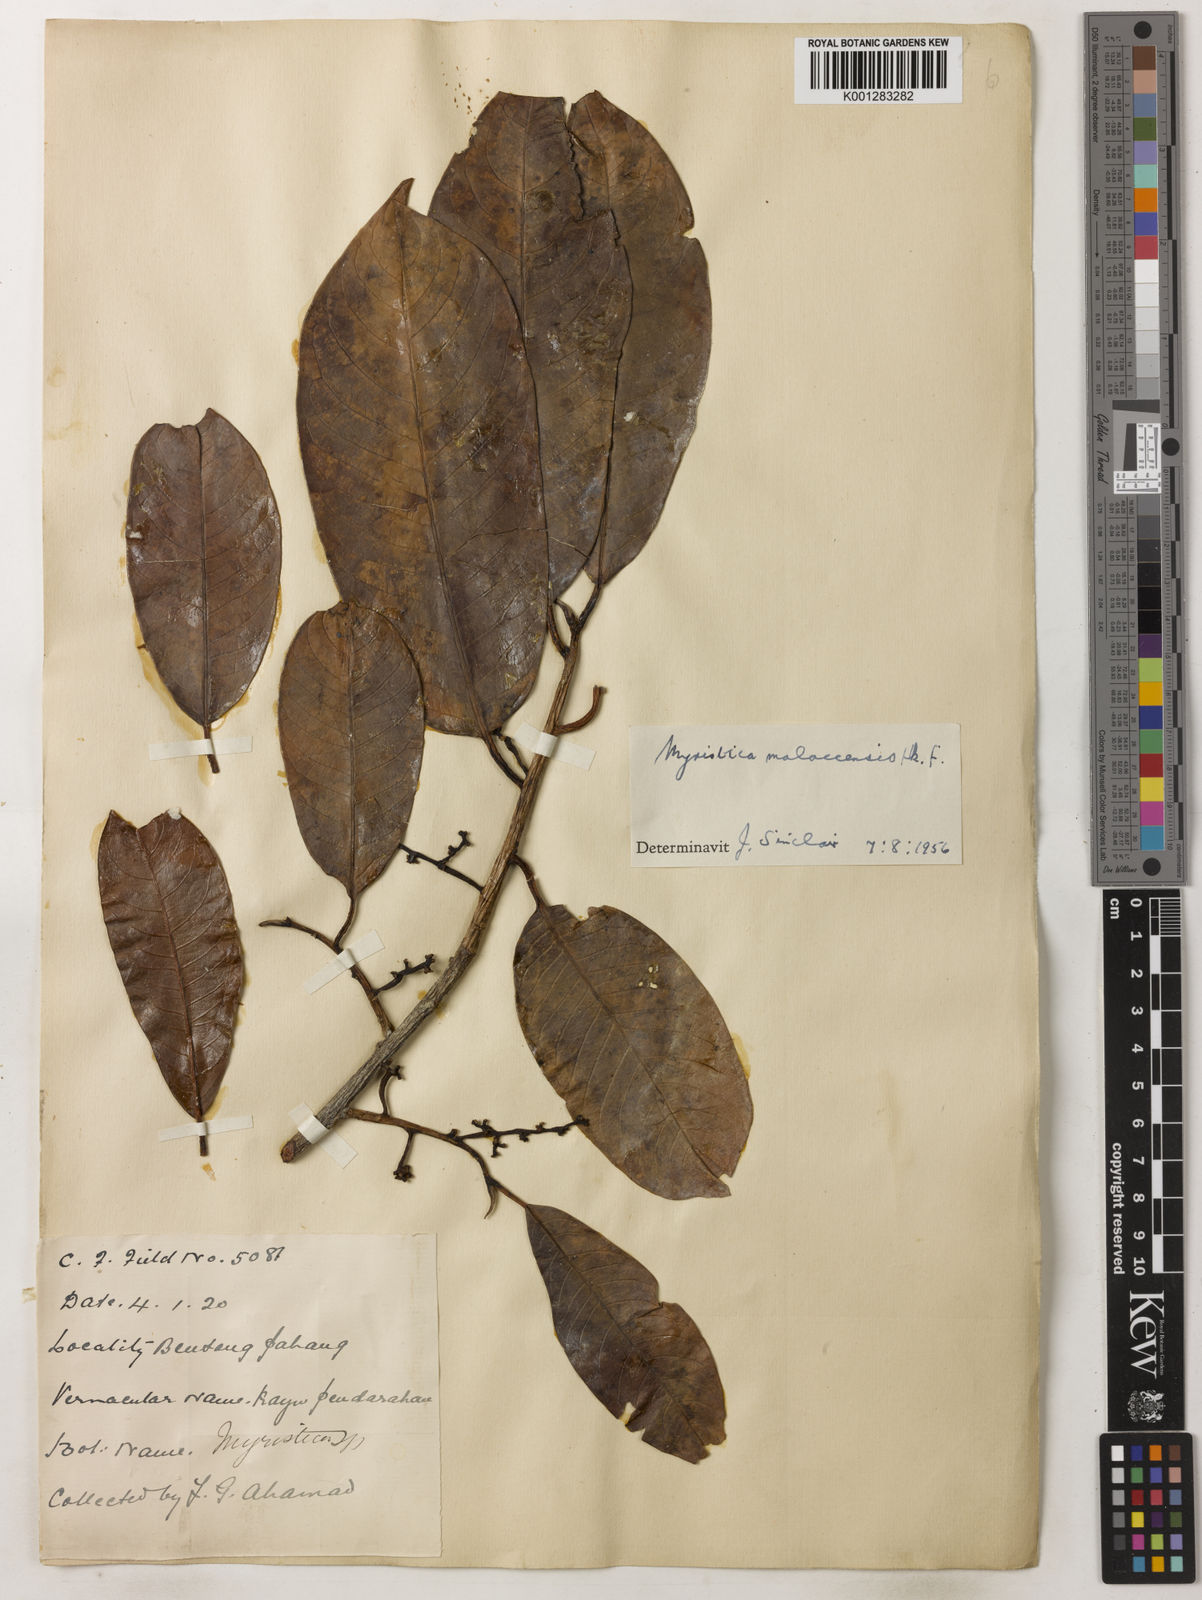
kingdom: Plantae
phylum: Tracheophyta
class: Magnoliopsida
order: Magnoliales
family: Myristicaceae
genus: Myristica
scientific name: Myristica malaccensis
